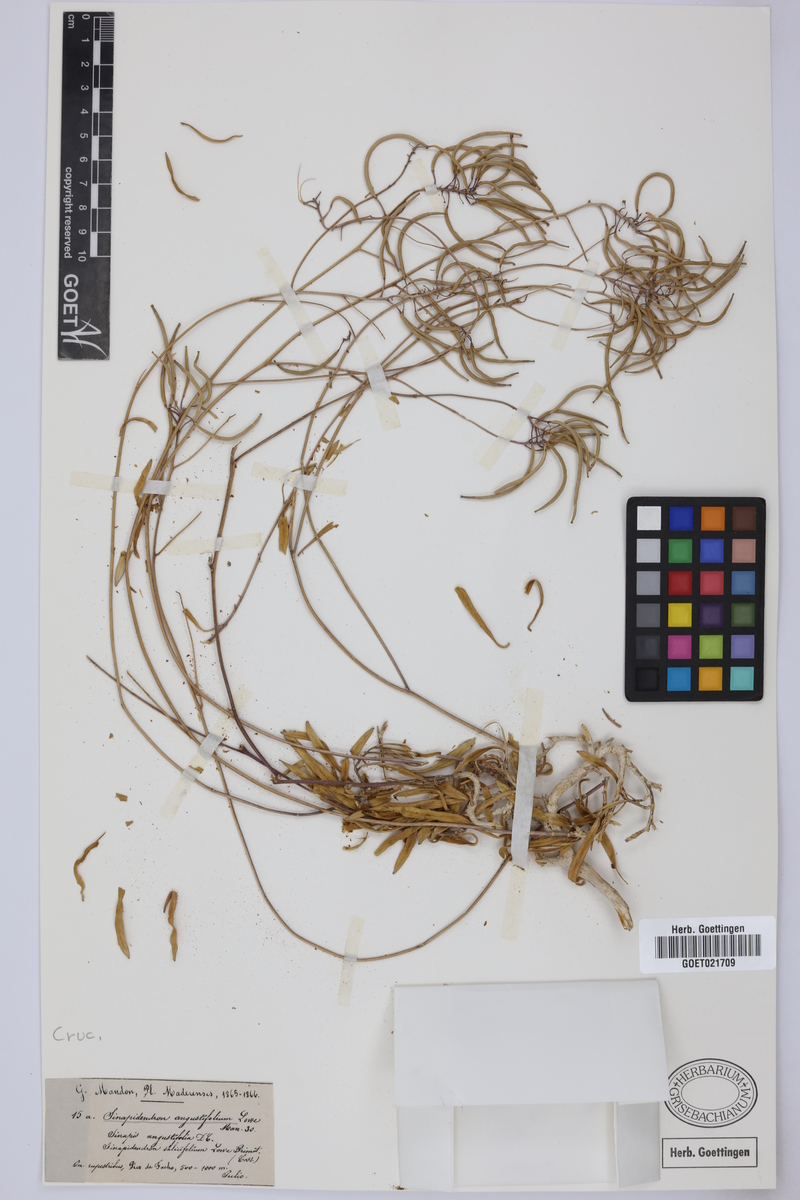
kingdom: Plantae
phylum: Tracheophyta
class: Magnoliopsida
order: Brassicales
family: Brassicaceae
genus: Sinapidendron
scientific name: Sinapidendron angustifolium
